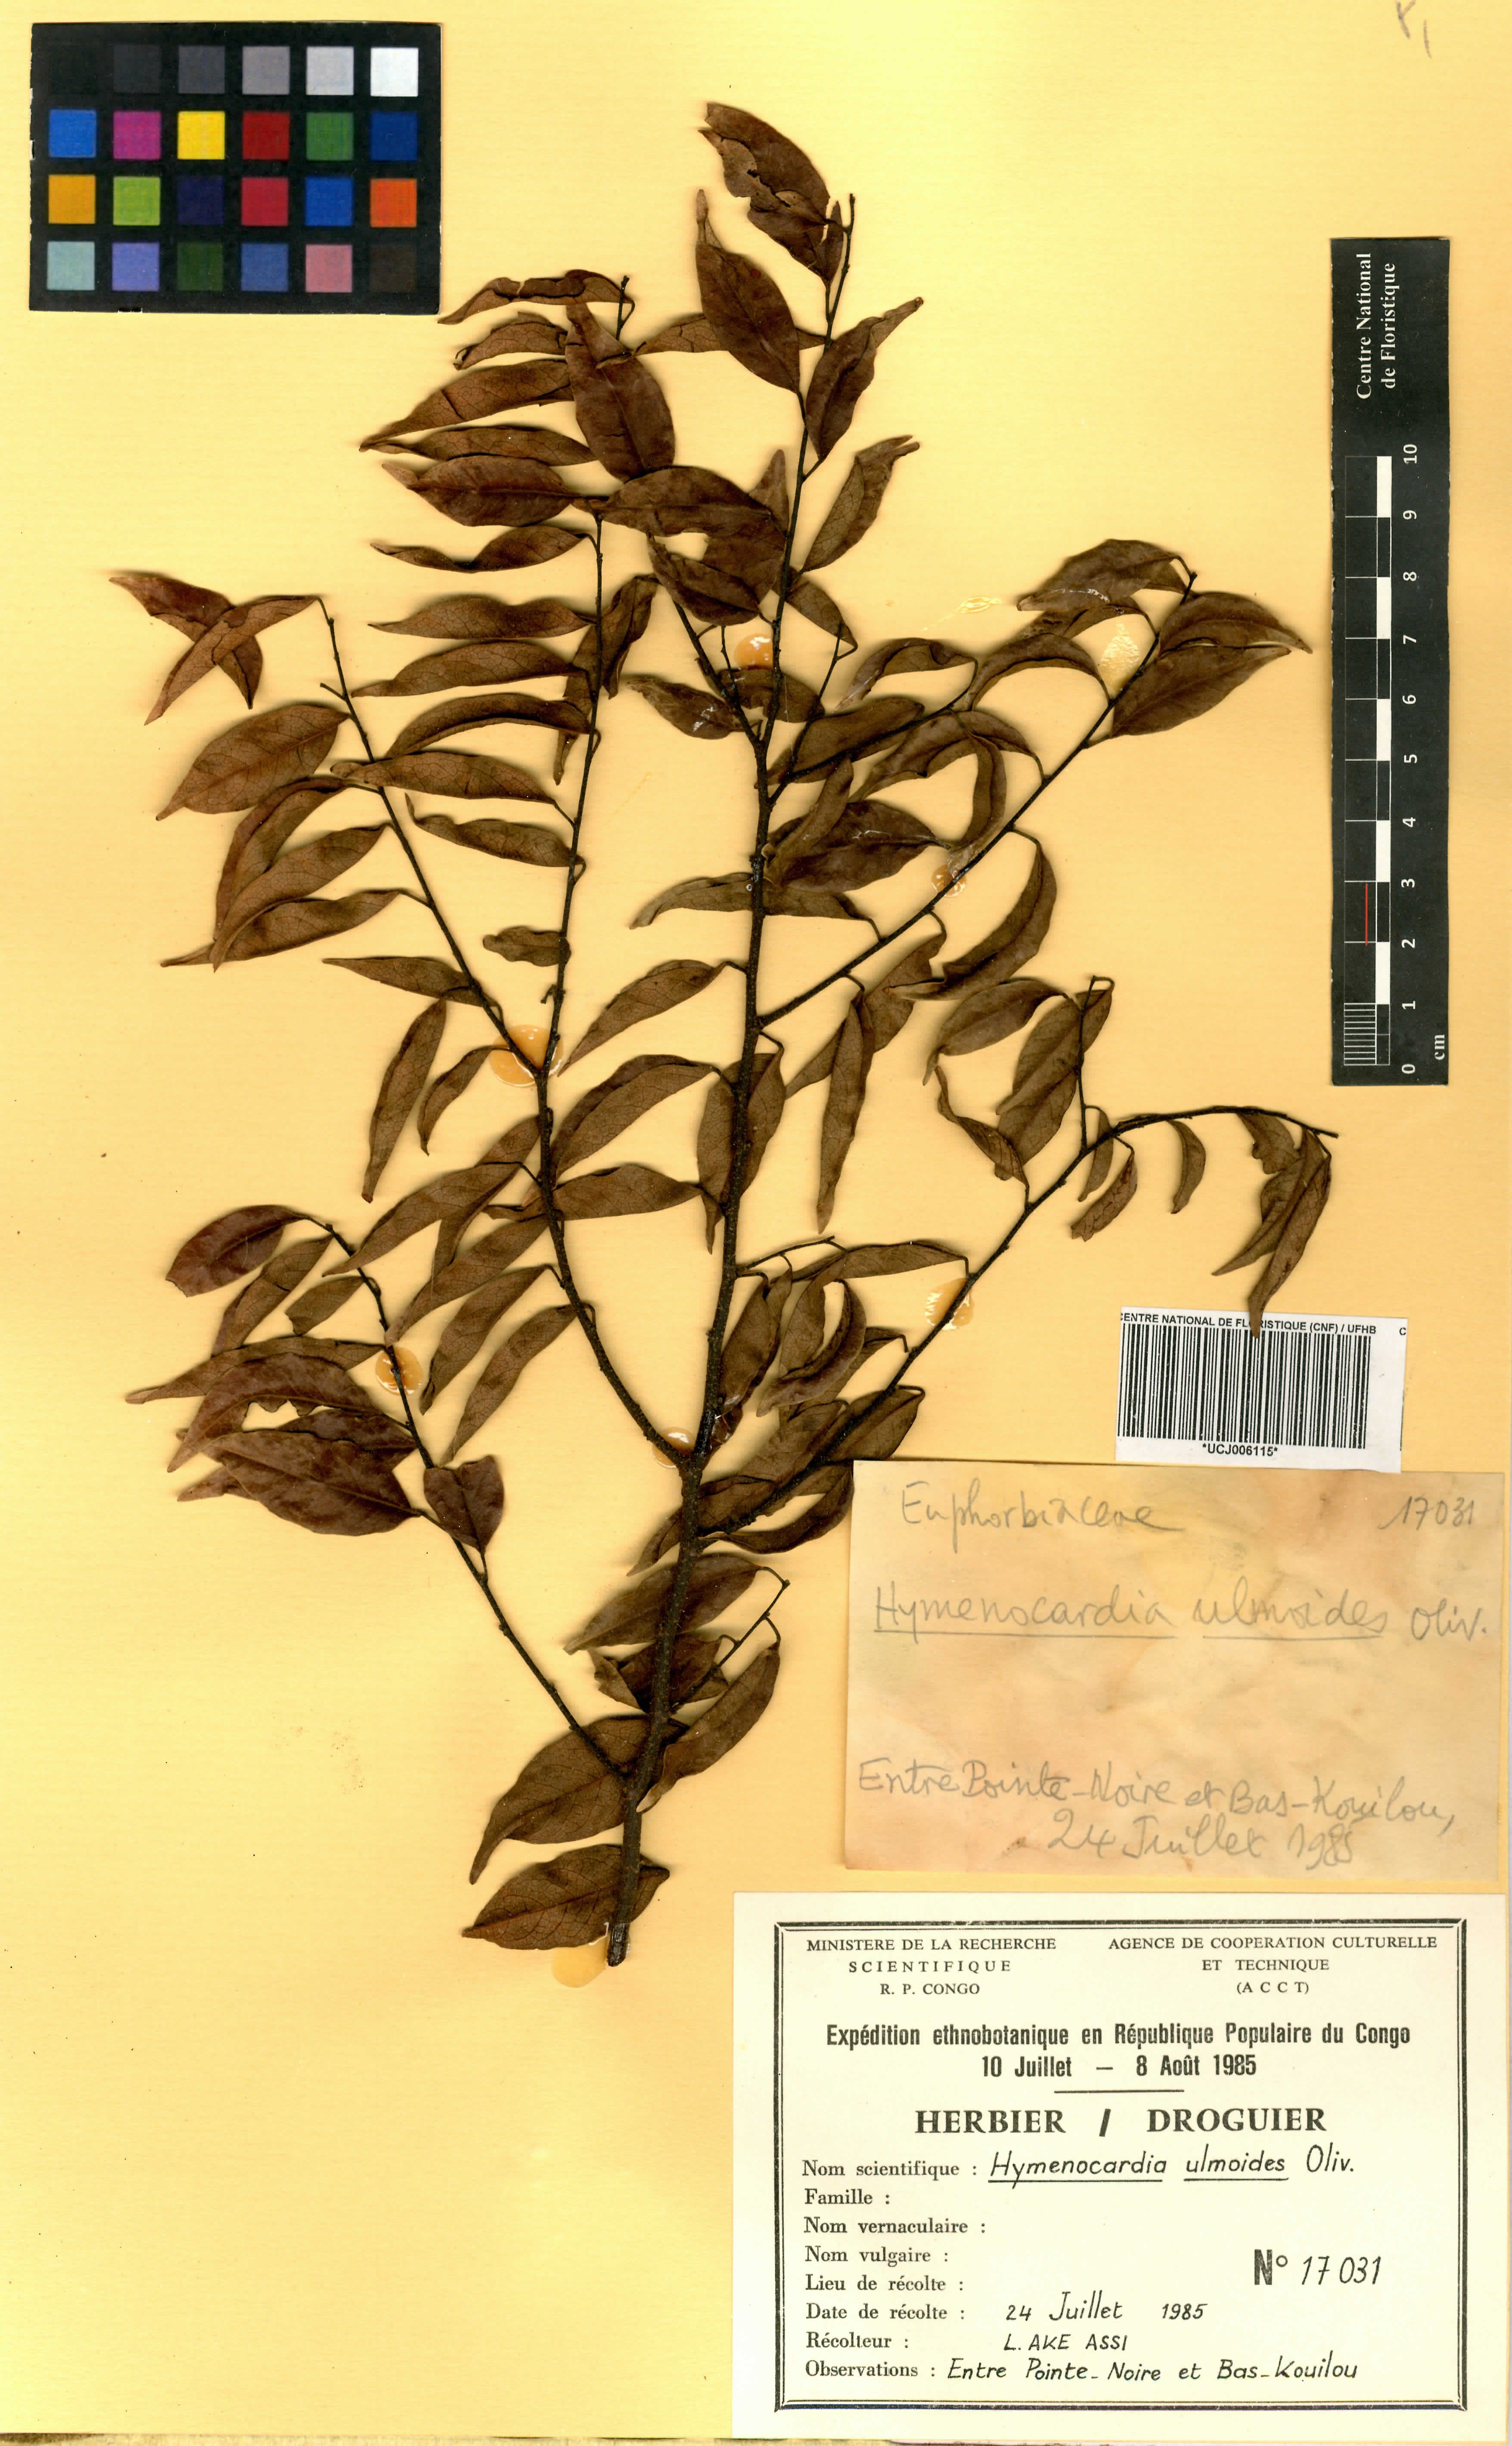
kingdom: Plantae
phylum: Tracheophyta
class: Magnoliopsida
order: Malpighiales
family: Phyllanthaceae
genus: Hymenocardia
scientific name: Hymenocardia ulmoides
